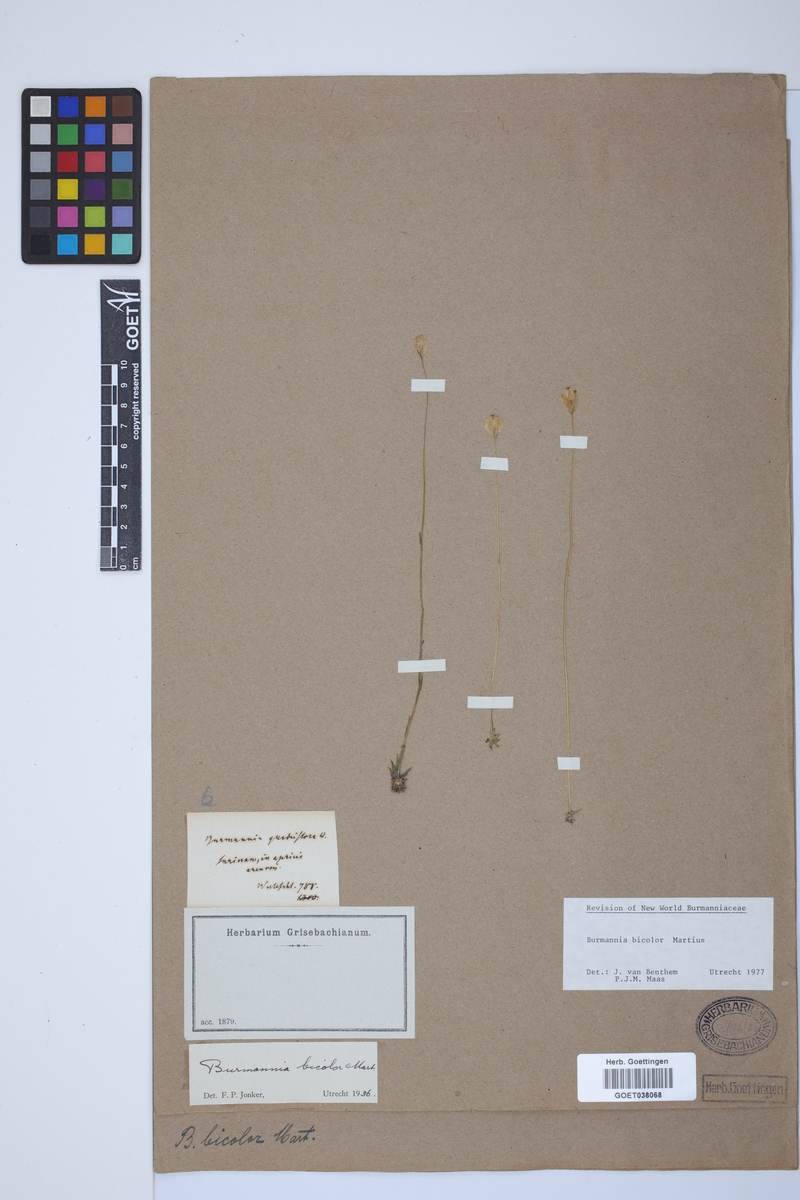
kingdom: Plantae
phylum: Tracheophyta
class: Liliopsida
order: Dioscoreales
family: Burmanniaceae
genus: Burmannia
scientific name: Burmannia bicolor
